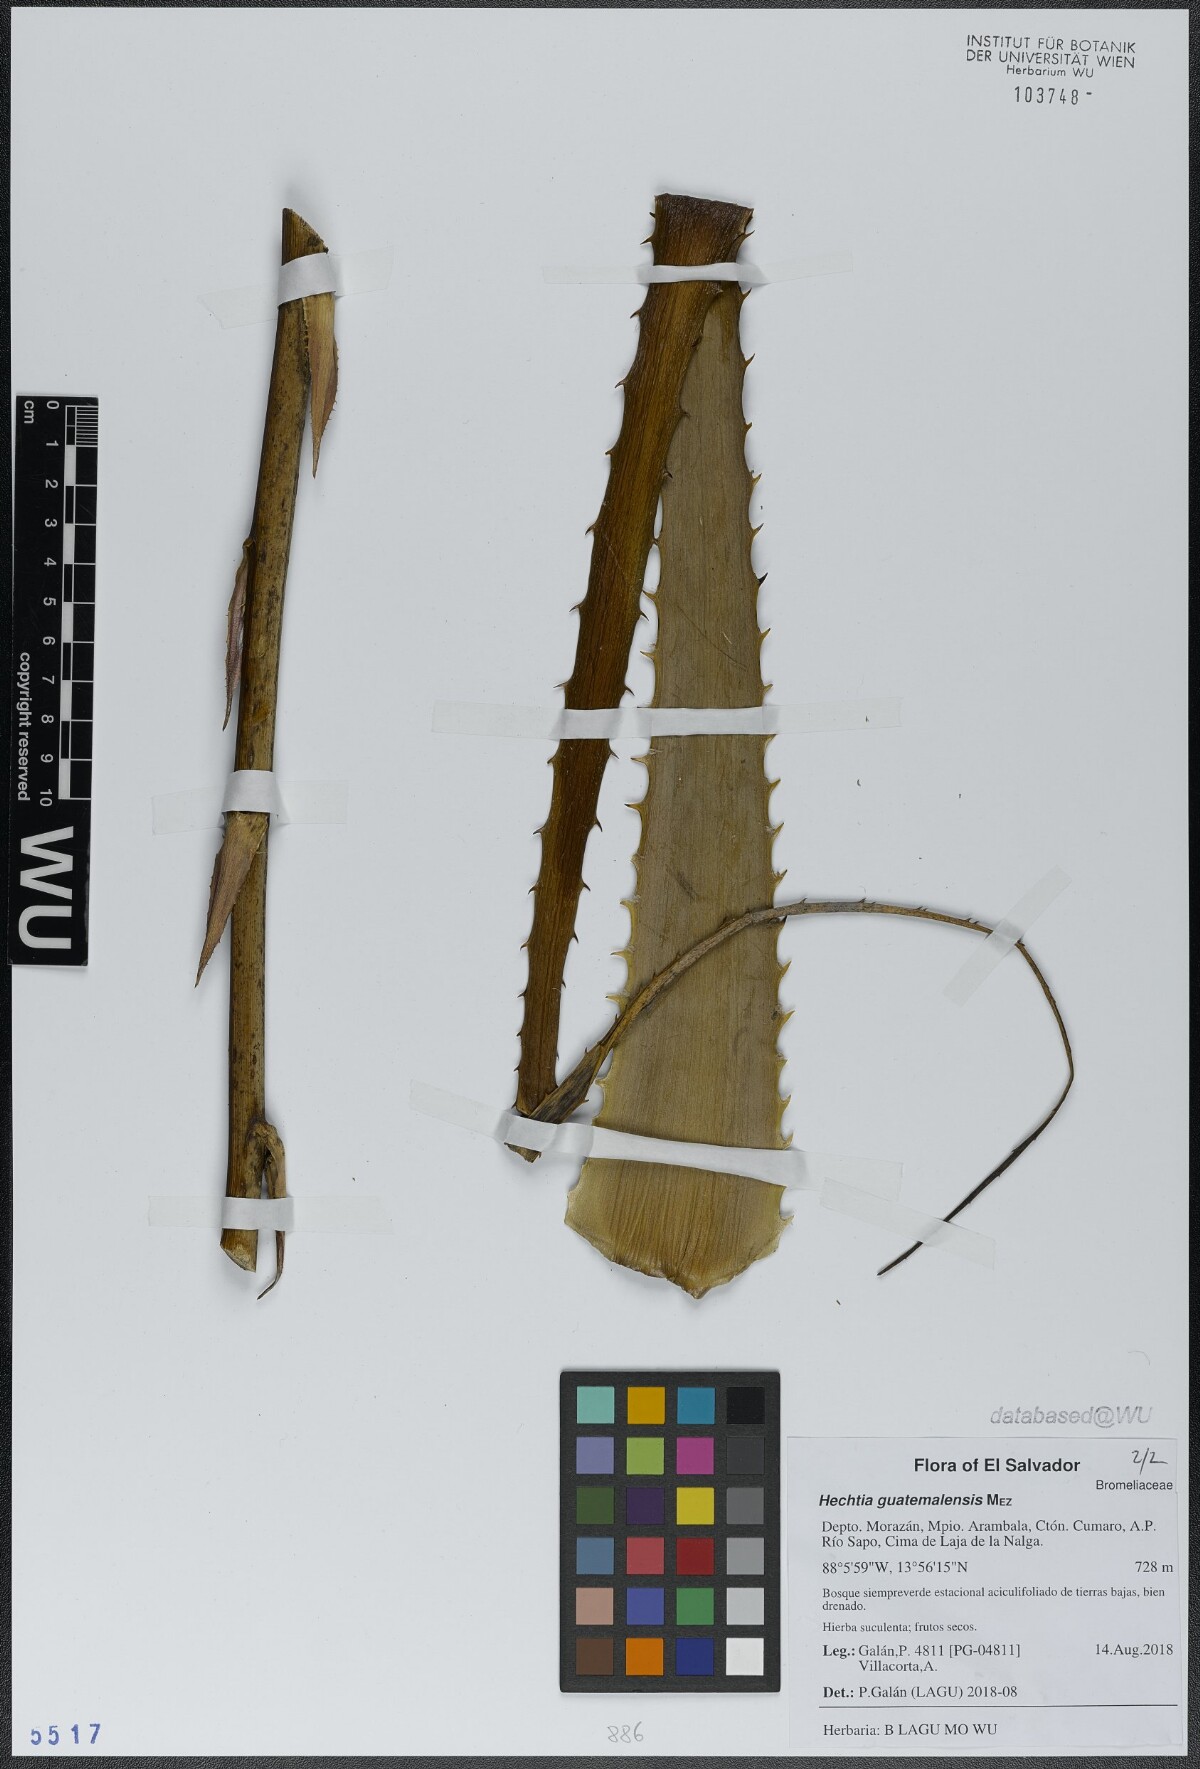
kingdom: Plantae
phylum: Tracheophyta
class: Liliopsida
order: Poales
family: Bromeliaceae
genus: Hechtia
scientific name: Hechtia guatemalensis
